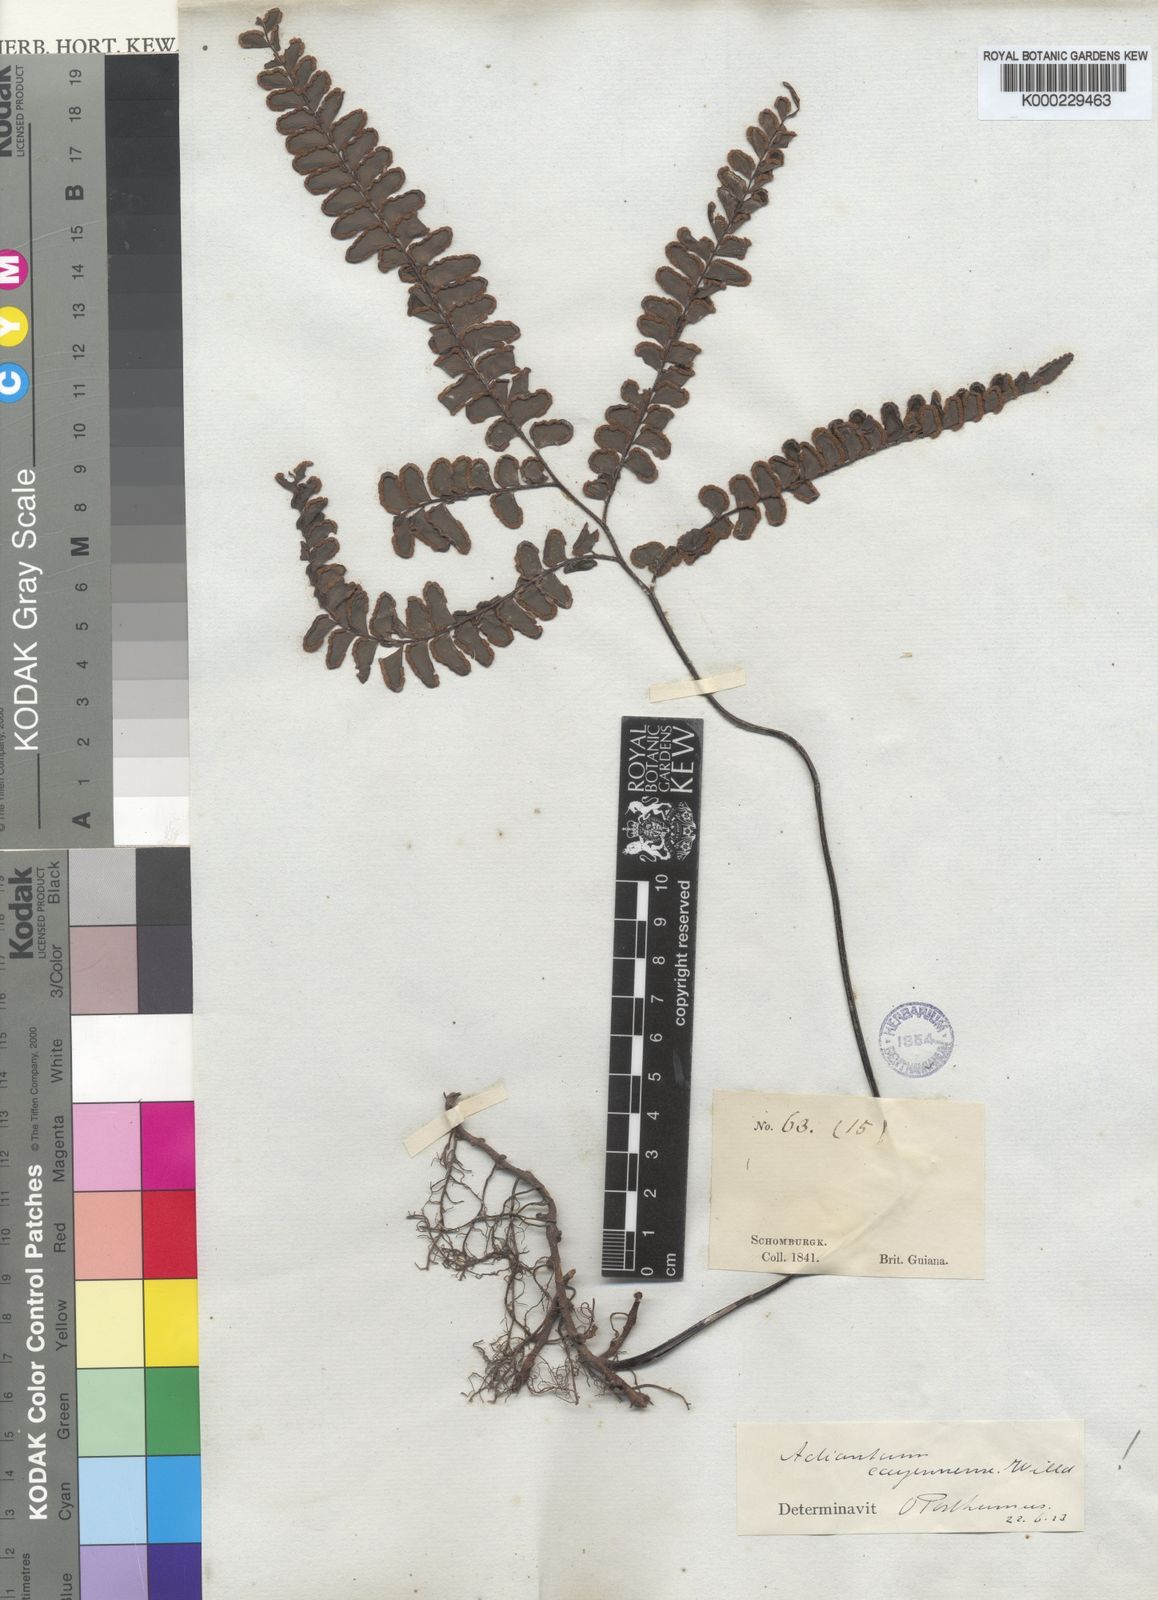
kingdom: Plantae
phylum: Tracheophyta
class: Polypodiopsida
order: Polypodiales
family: Pteridaceae
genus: Adiantum
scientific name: Adiantum cajennense
